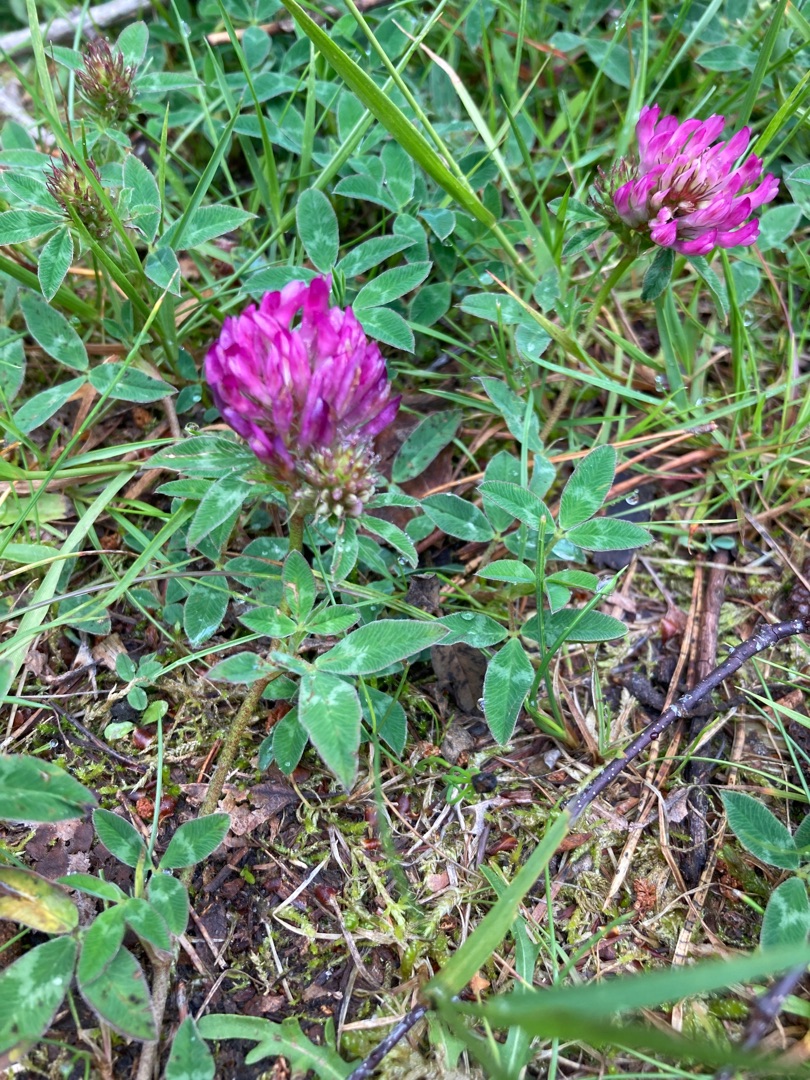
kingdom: Plantae
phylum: Tracheophyta
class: Magnoliopsida
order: Fabales
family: Fabaceae
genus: Trifolium
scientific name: Trifolium pratense
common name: Rød-kløver
